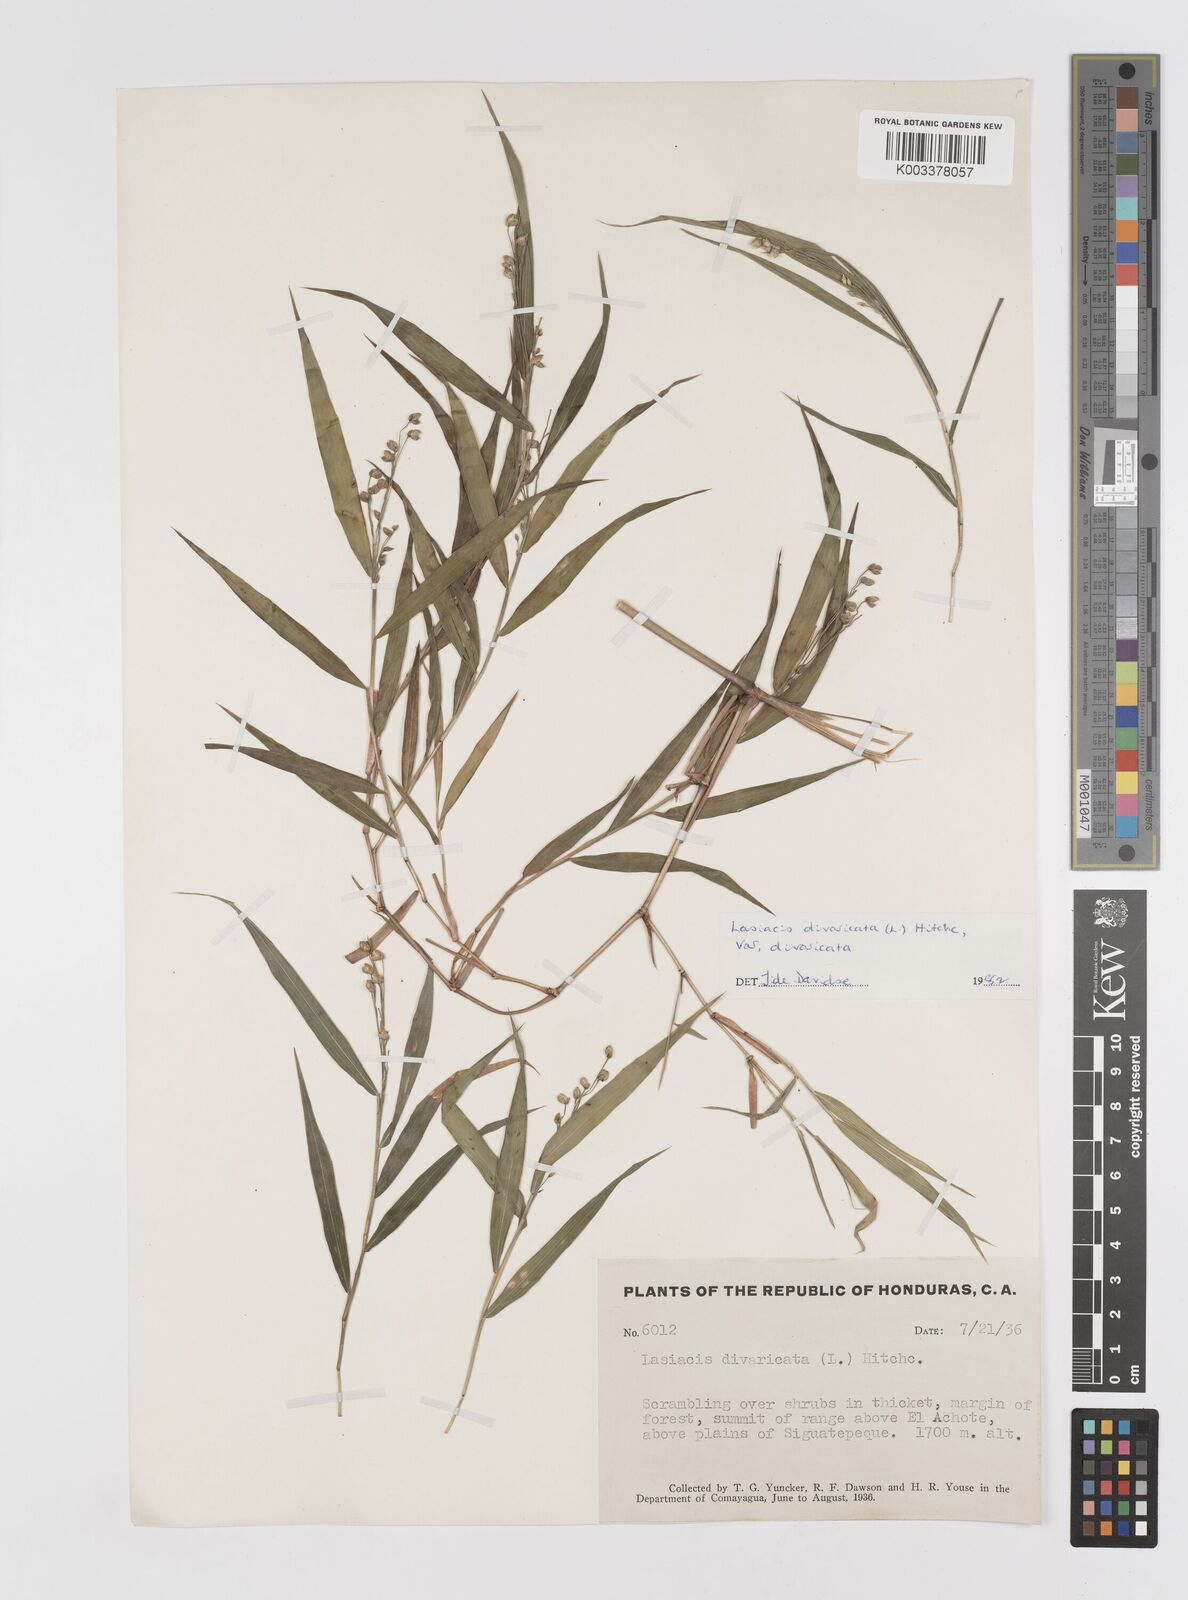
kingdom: Plantae
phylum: Tracheophyta
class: Liliopsida
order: Poales
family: Poaceae
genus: Lasiacis
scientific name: Lasiacis divaricata
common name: Smallcane
